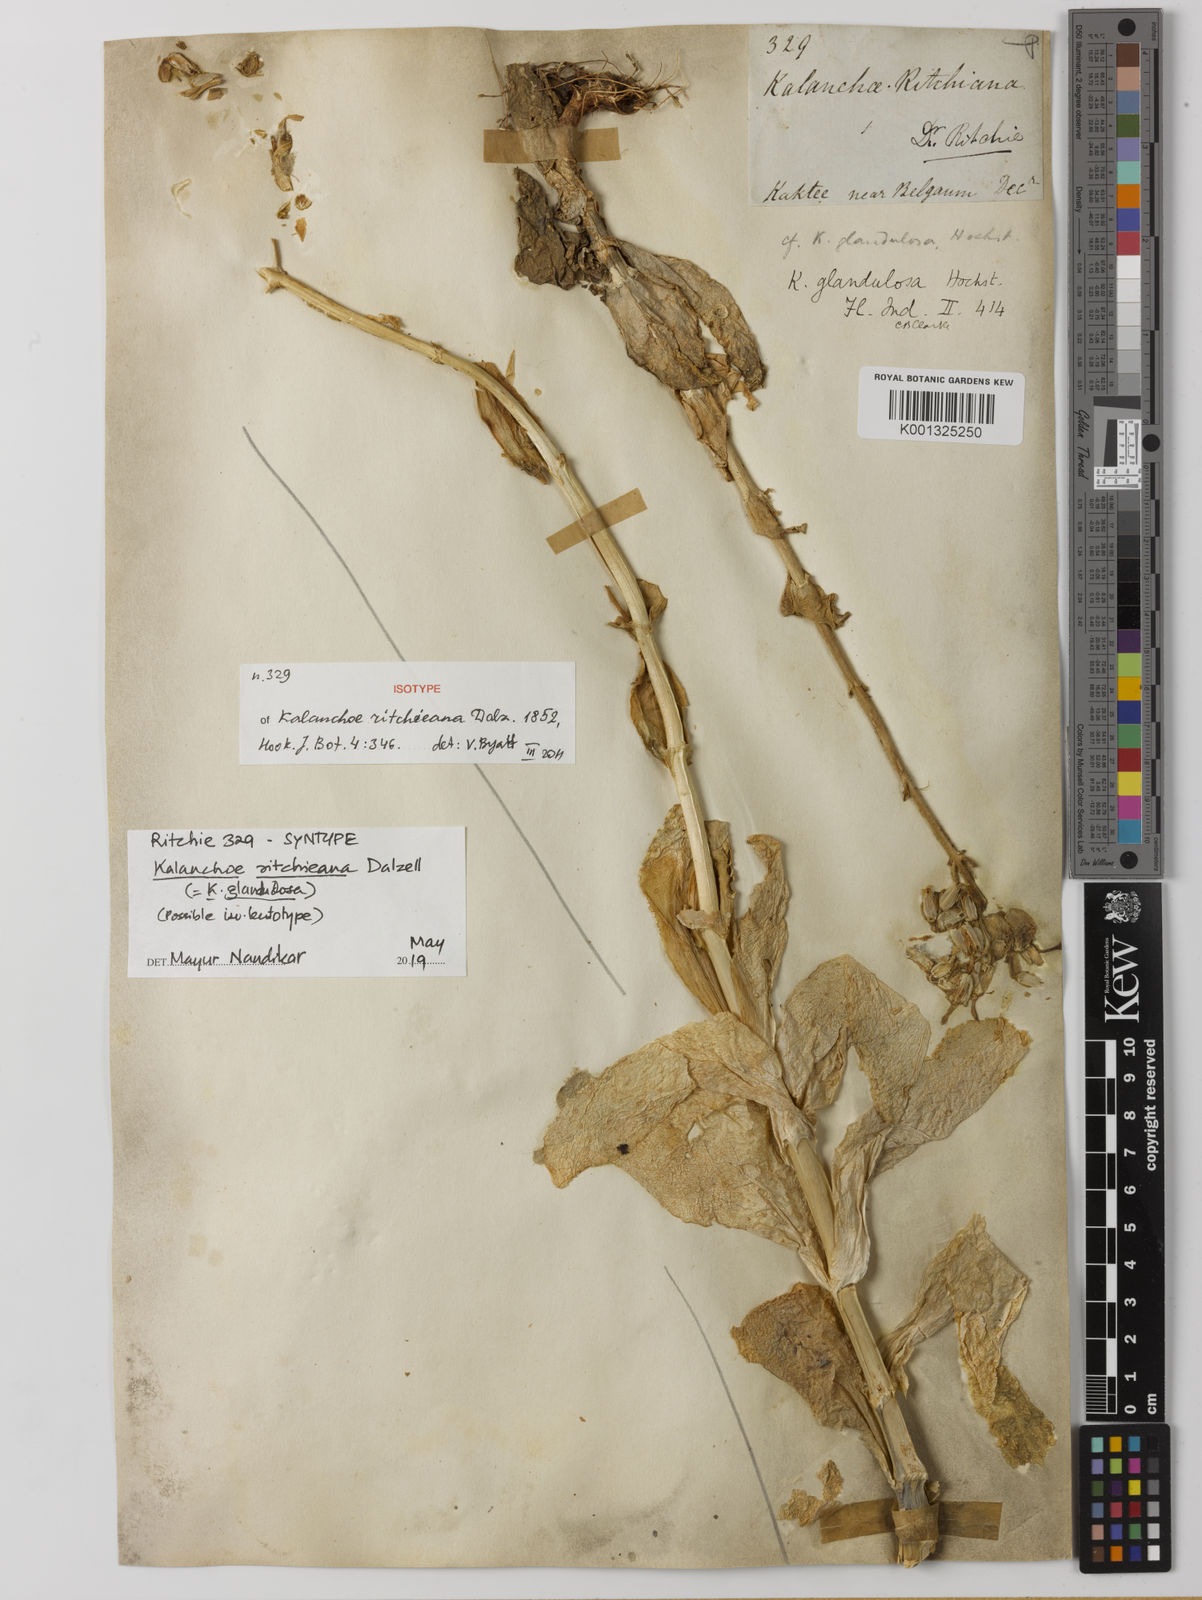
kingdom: Plantae
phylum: Tracheophyta
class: Magnoliopsida
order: Saxifragales
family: Crassulaceae
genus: Kalanchoe
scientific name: Kalanchoe lanceolata
